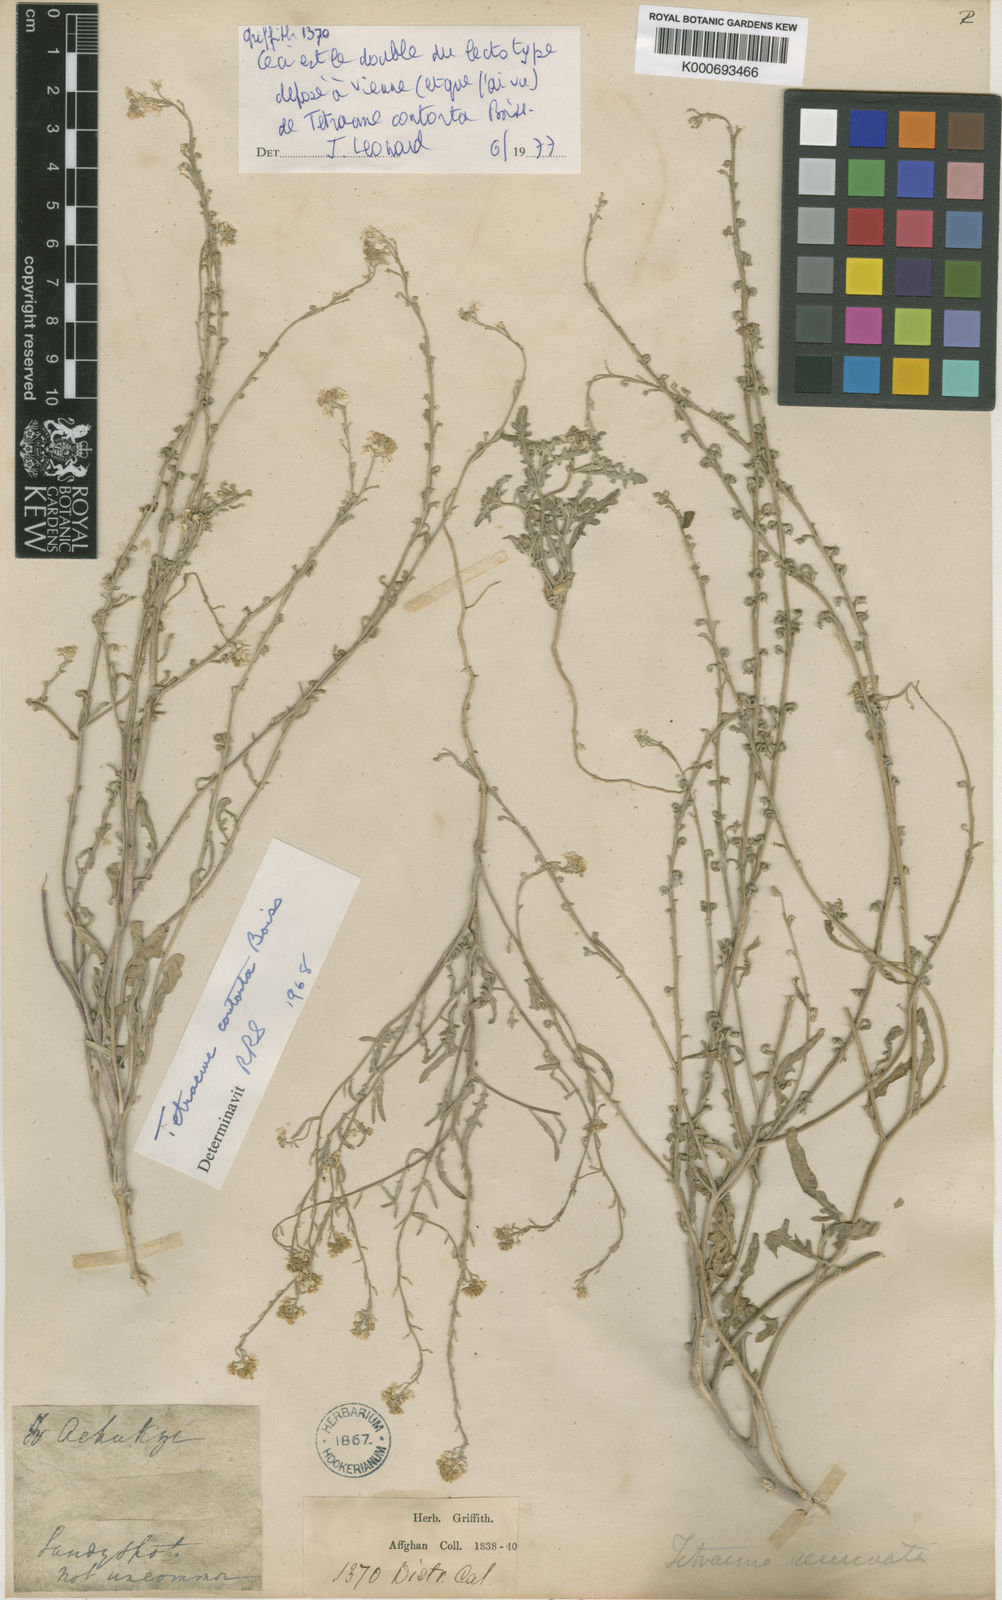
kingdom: Plantae
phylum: Tracheophyta
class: Magnoliopsida
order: Brassicales
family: Brassicaceae
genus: Tetracme
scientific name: Tetracme contorta
